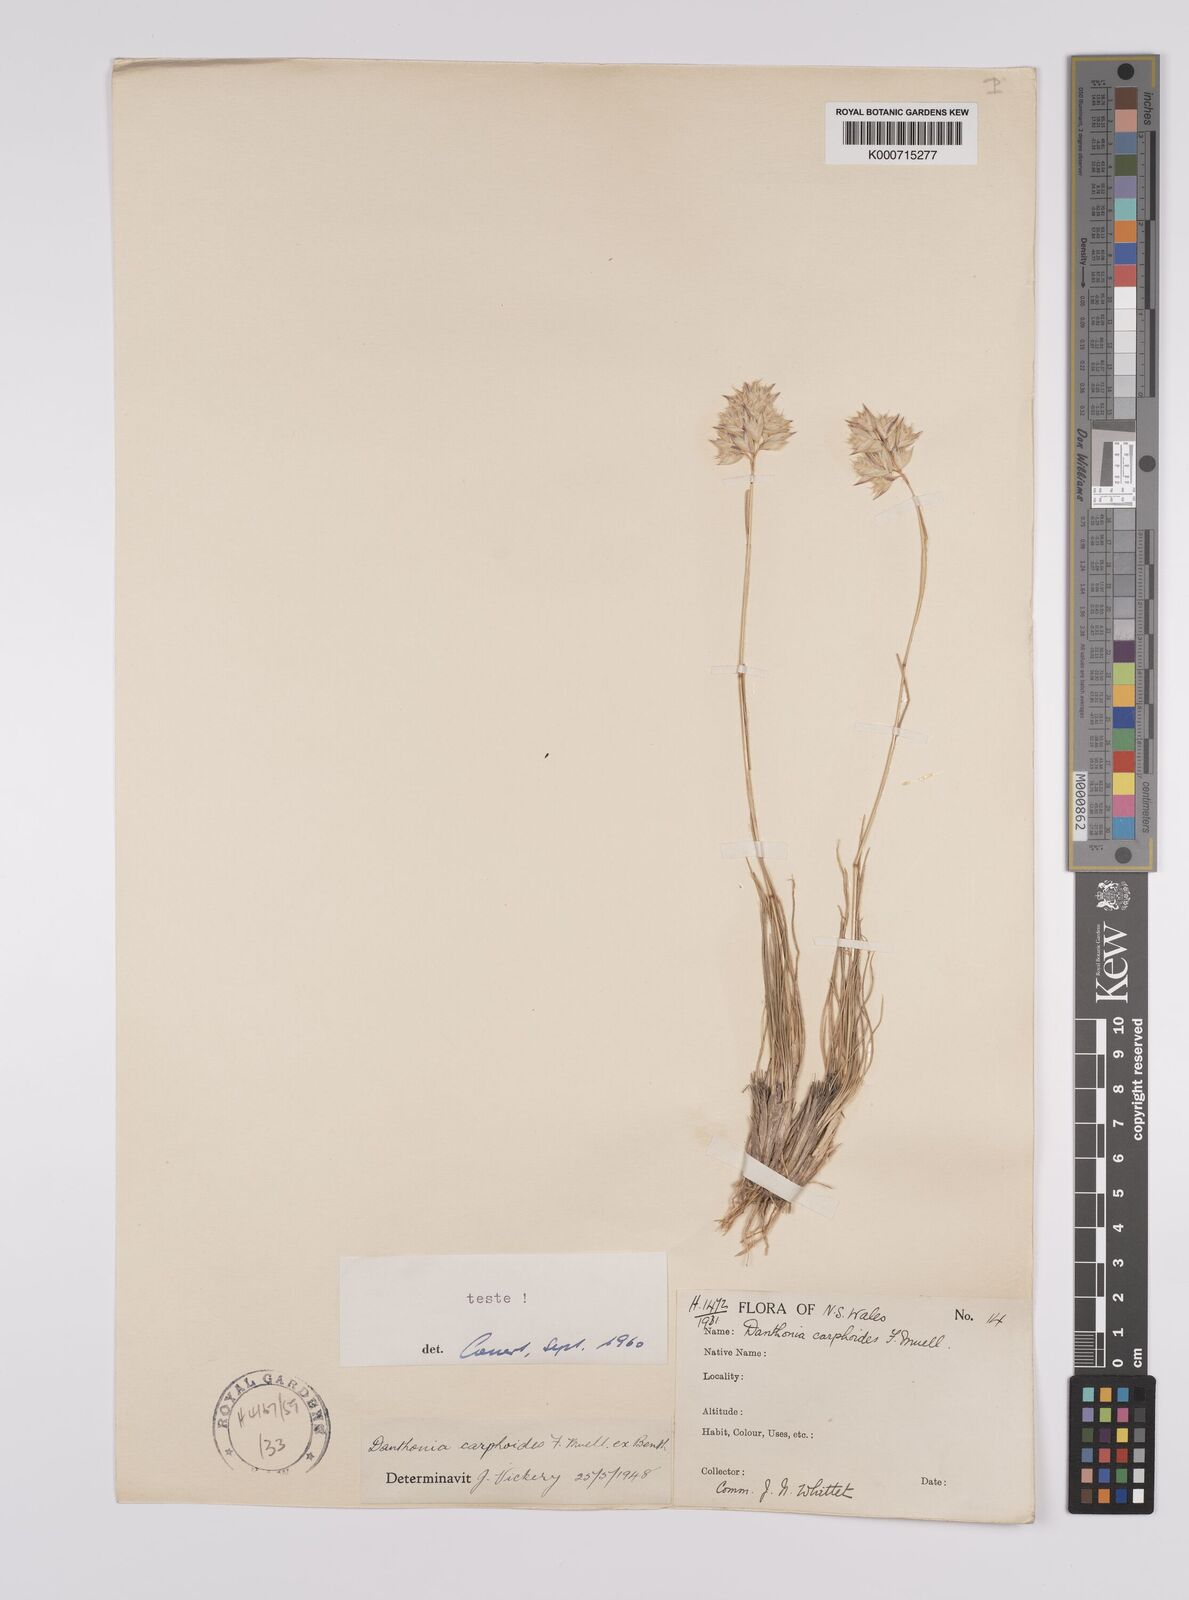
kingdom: Plantae
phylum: Tracheophyta
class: Liliopsida
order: Poales
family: Poaceae
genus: Rytidosperma
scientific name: Rytidosperma carphoides
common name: Short wallaby grass
